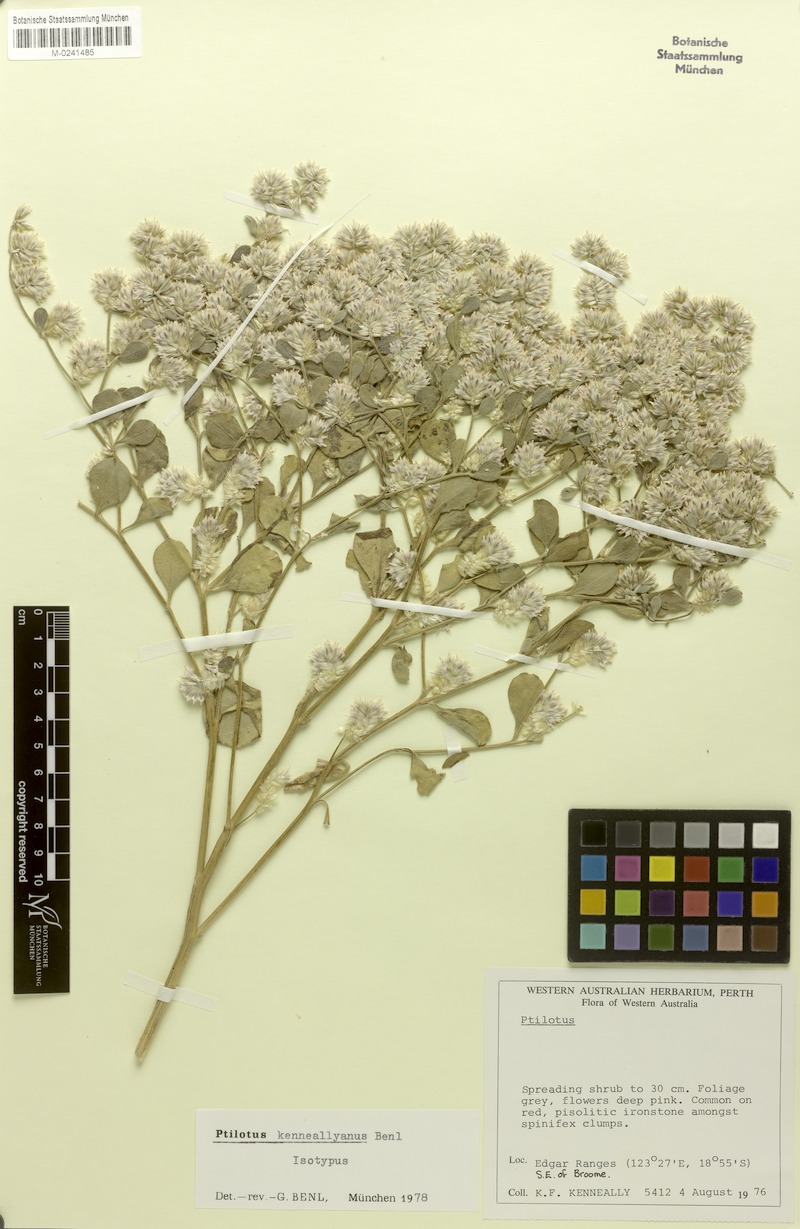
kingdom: Plantae
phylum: Tracheophyta
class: Magnoliopsida
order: Caryophyllales
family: Amaranthaceae
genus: Ptilotus
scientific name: Ptilotus kenneallyanus
